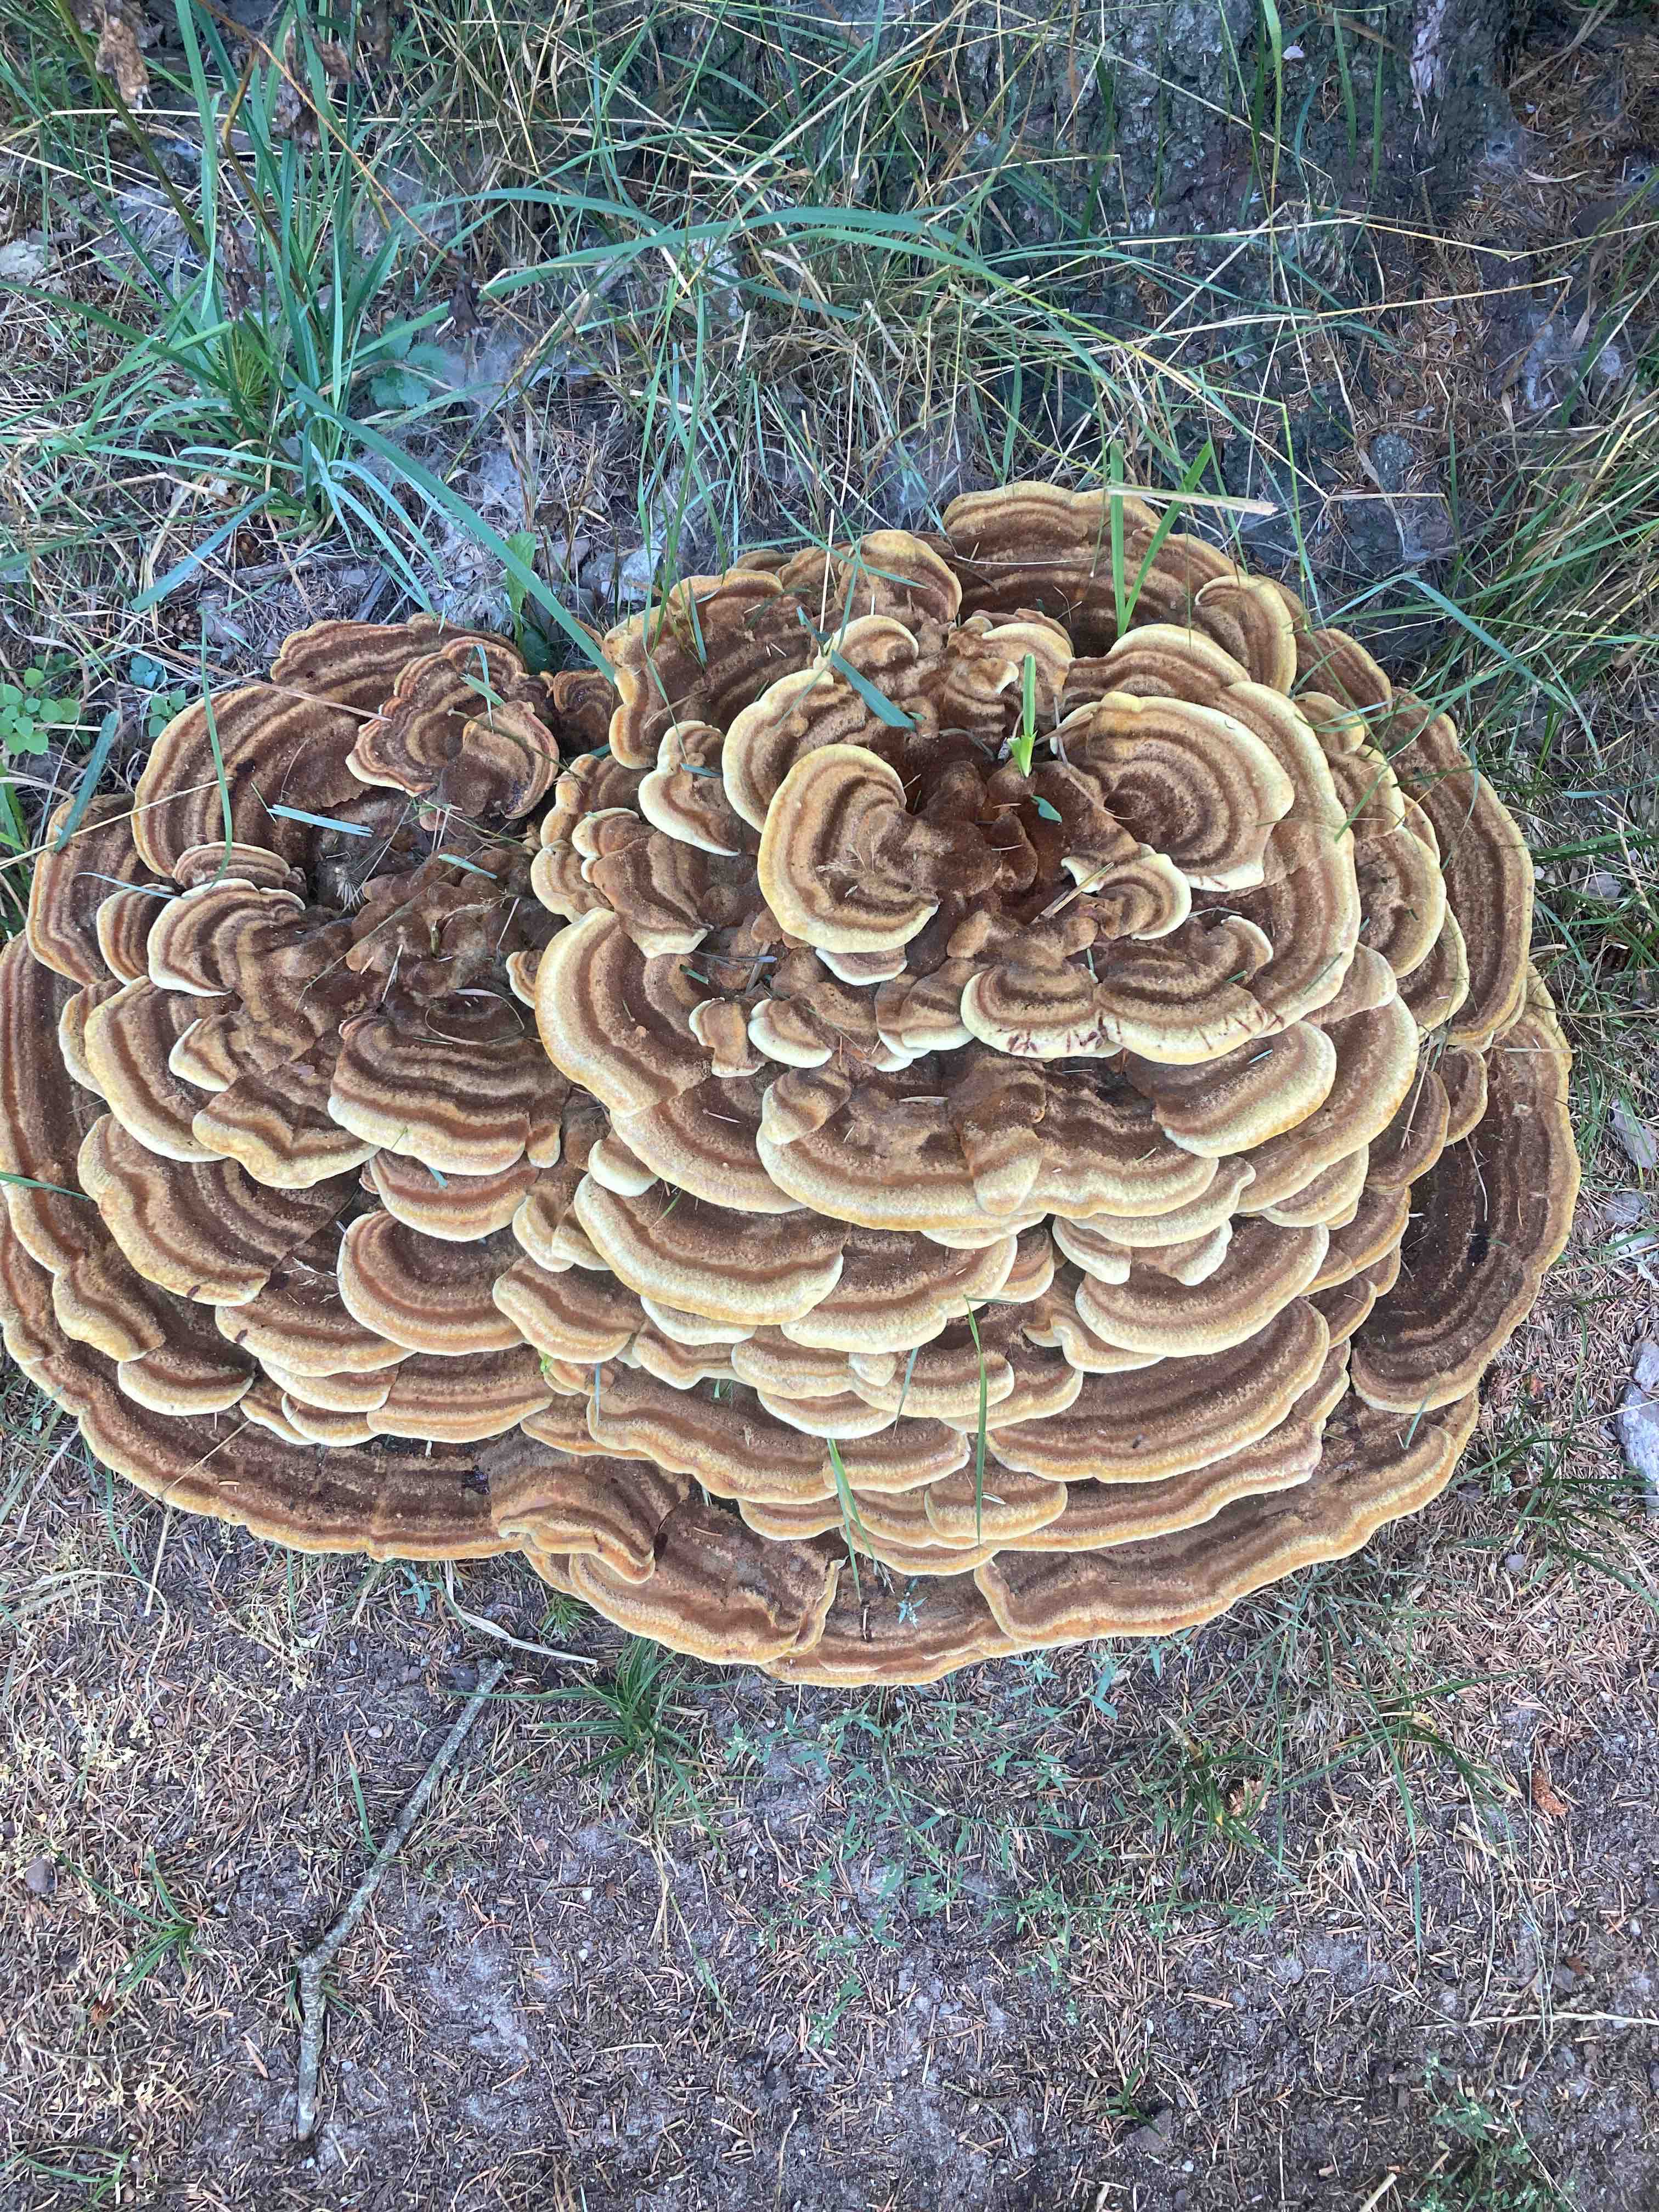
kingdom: Fungi
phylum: Basidiomycota
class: Agaricomycetes
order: Polyporales
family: Laetiporaceae
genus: Phaeolus
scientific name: Phaeolus schweinitzii
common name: brunporesvamp
